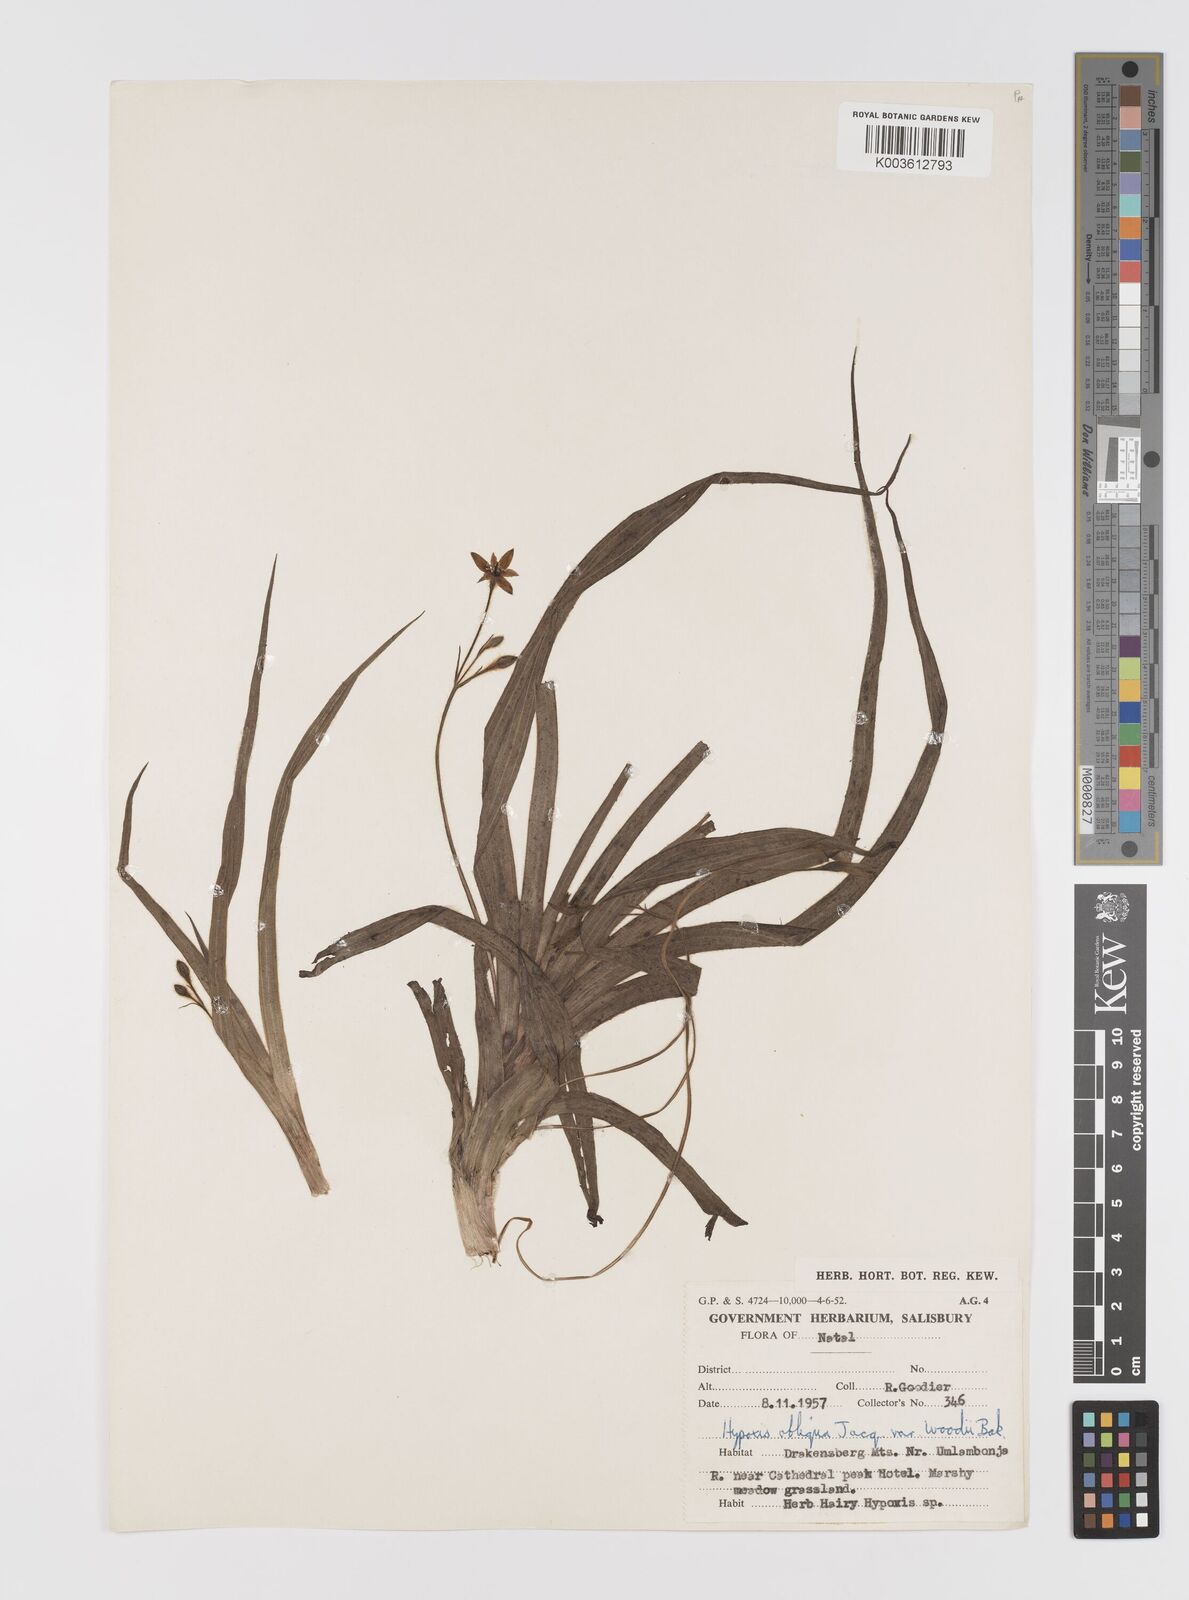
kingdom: Plantae
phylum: Tracheophyta
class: Liliopsida
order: Asparagales
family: Hypoxidaceae
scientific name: Hypoxidaceae
